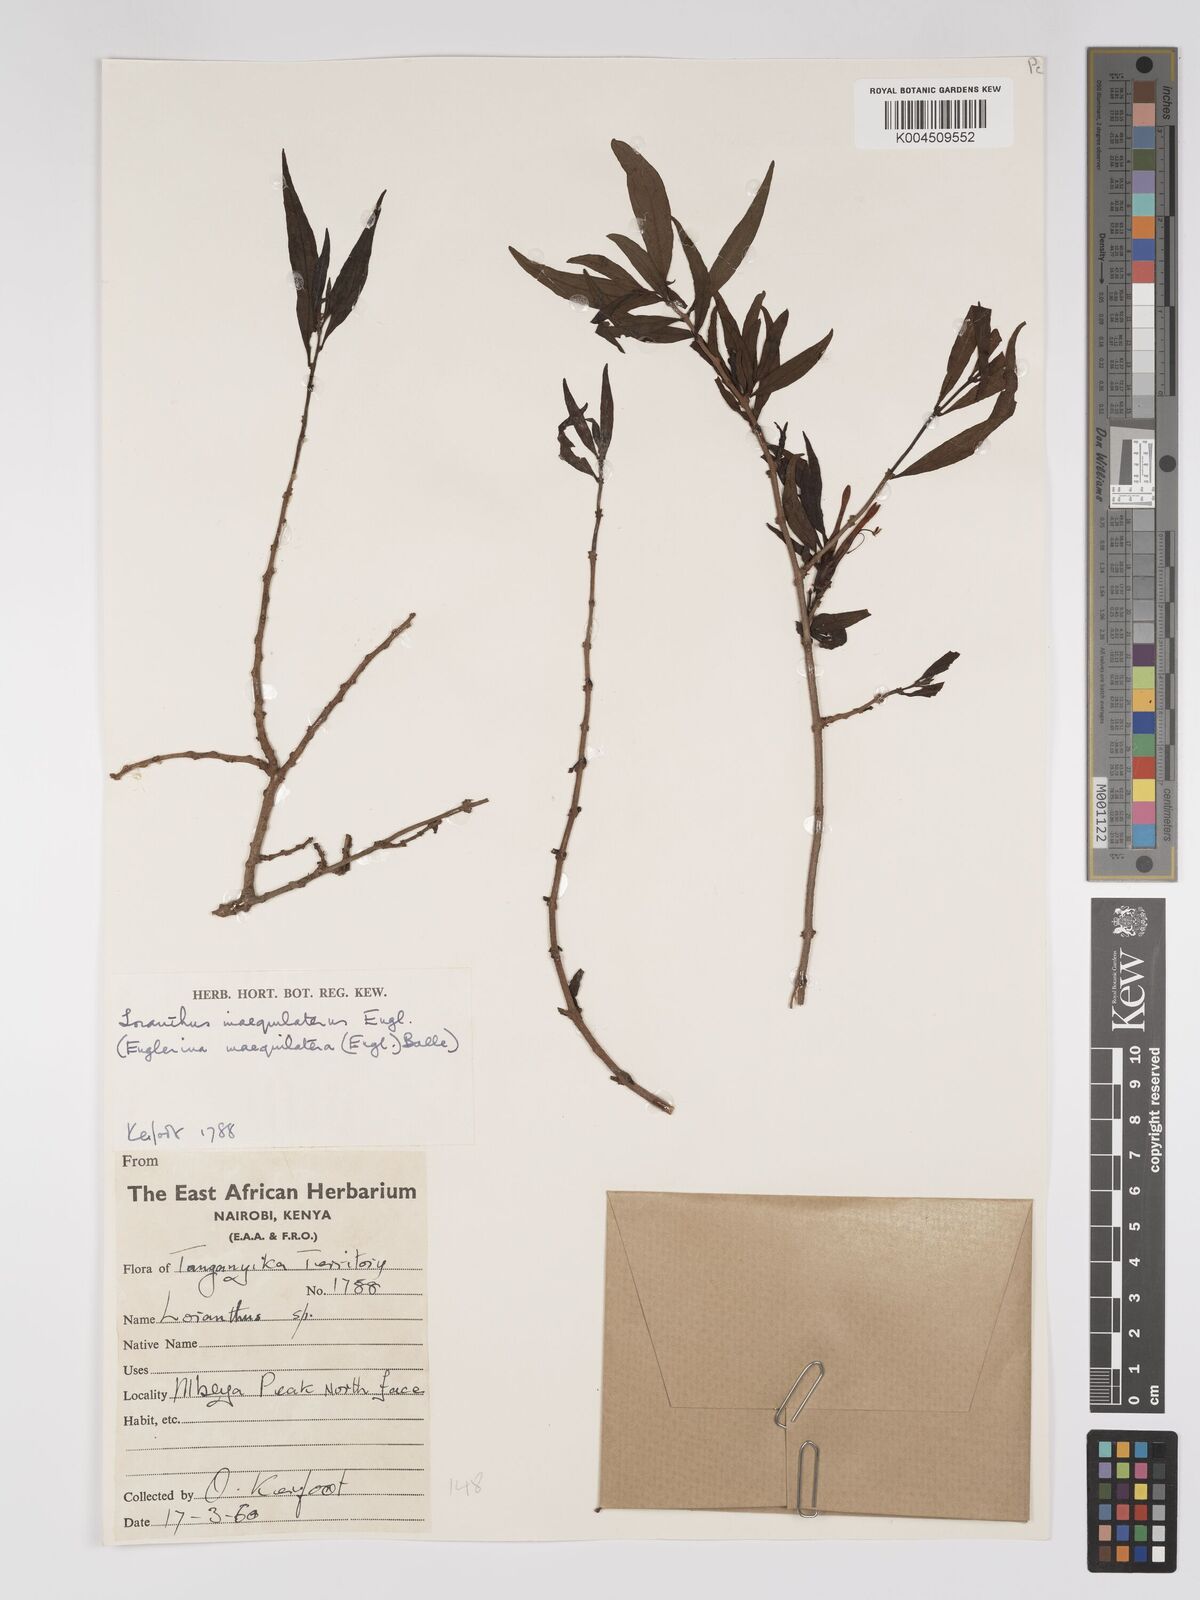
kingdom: Plantae
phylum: Tracheophyta
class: Magnoliopsida
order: Santalales
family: Loranthaceae
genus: Englerina
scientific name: Englerina inaequilatera
